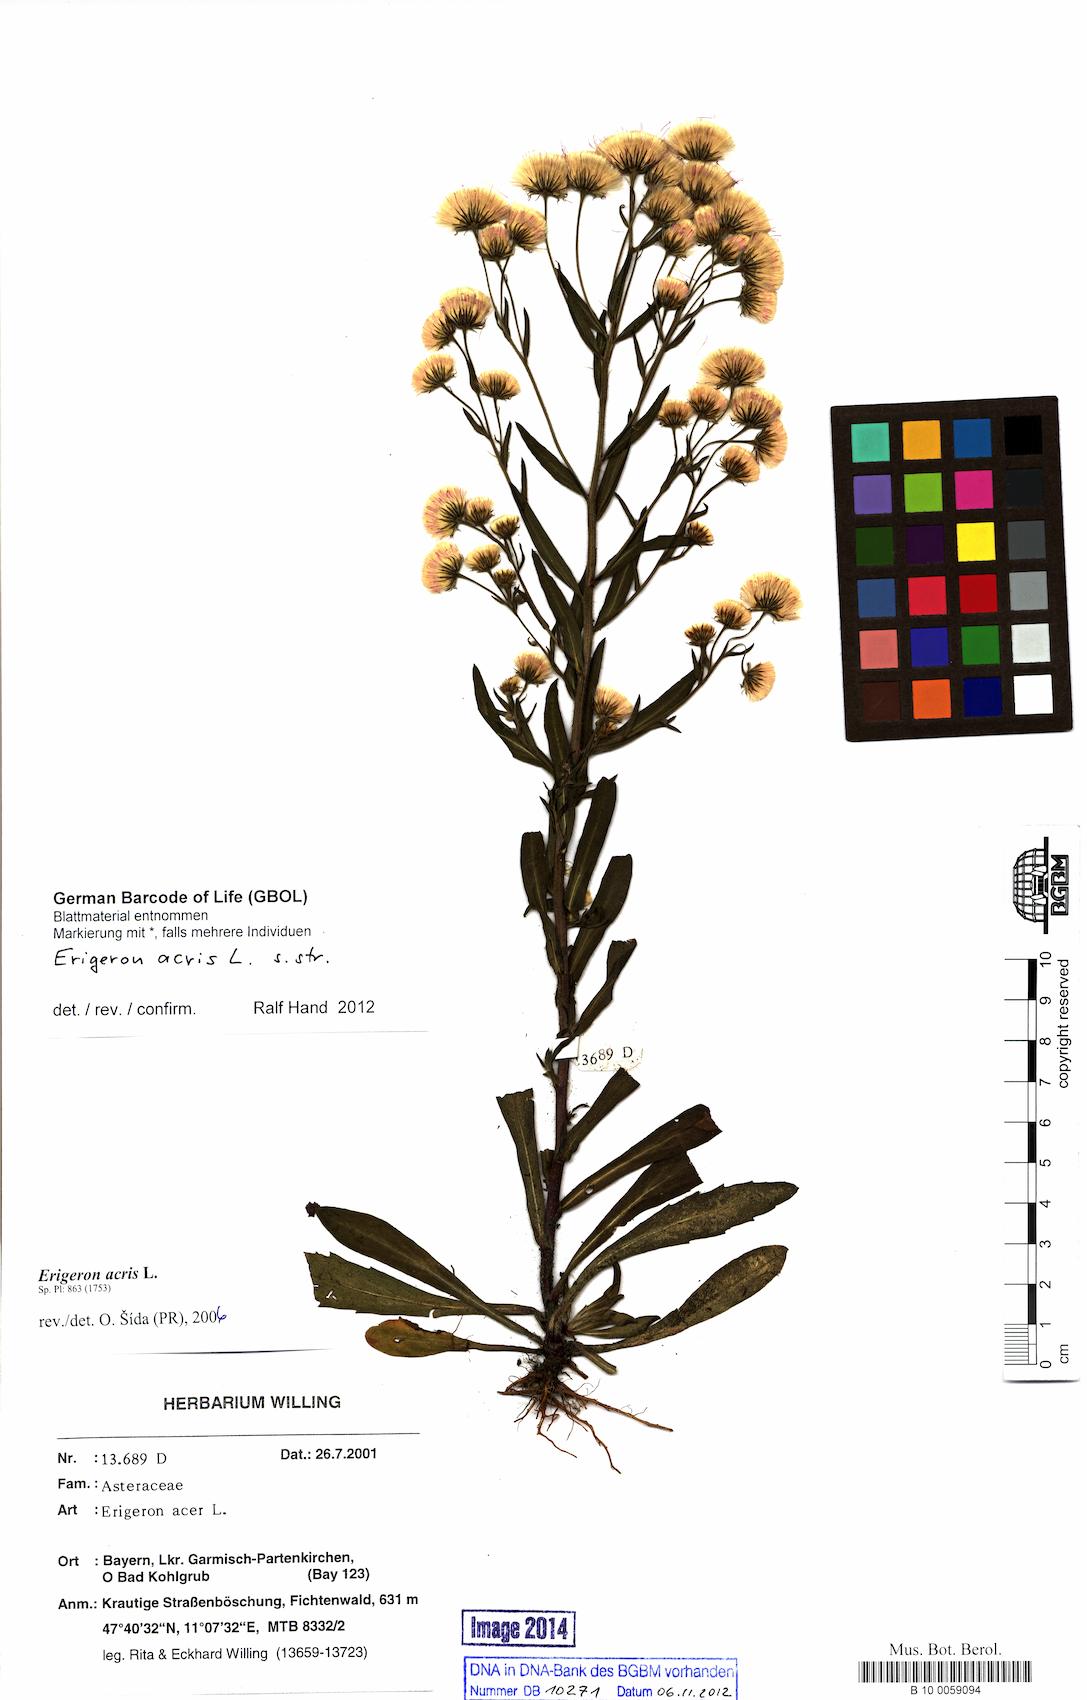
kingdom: Plantae
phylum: Tracheophyta
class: Magnoliopsida
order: Asterales
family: Asteraceae
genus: Erigeron
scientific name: Erigeron acris
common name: Blue fleabane
